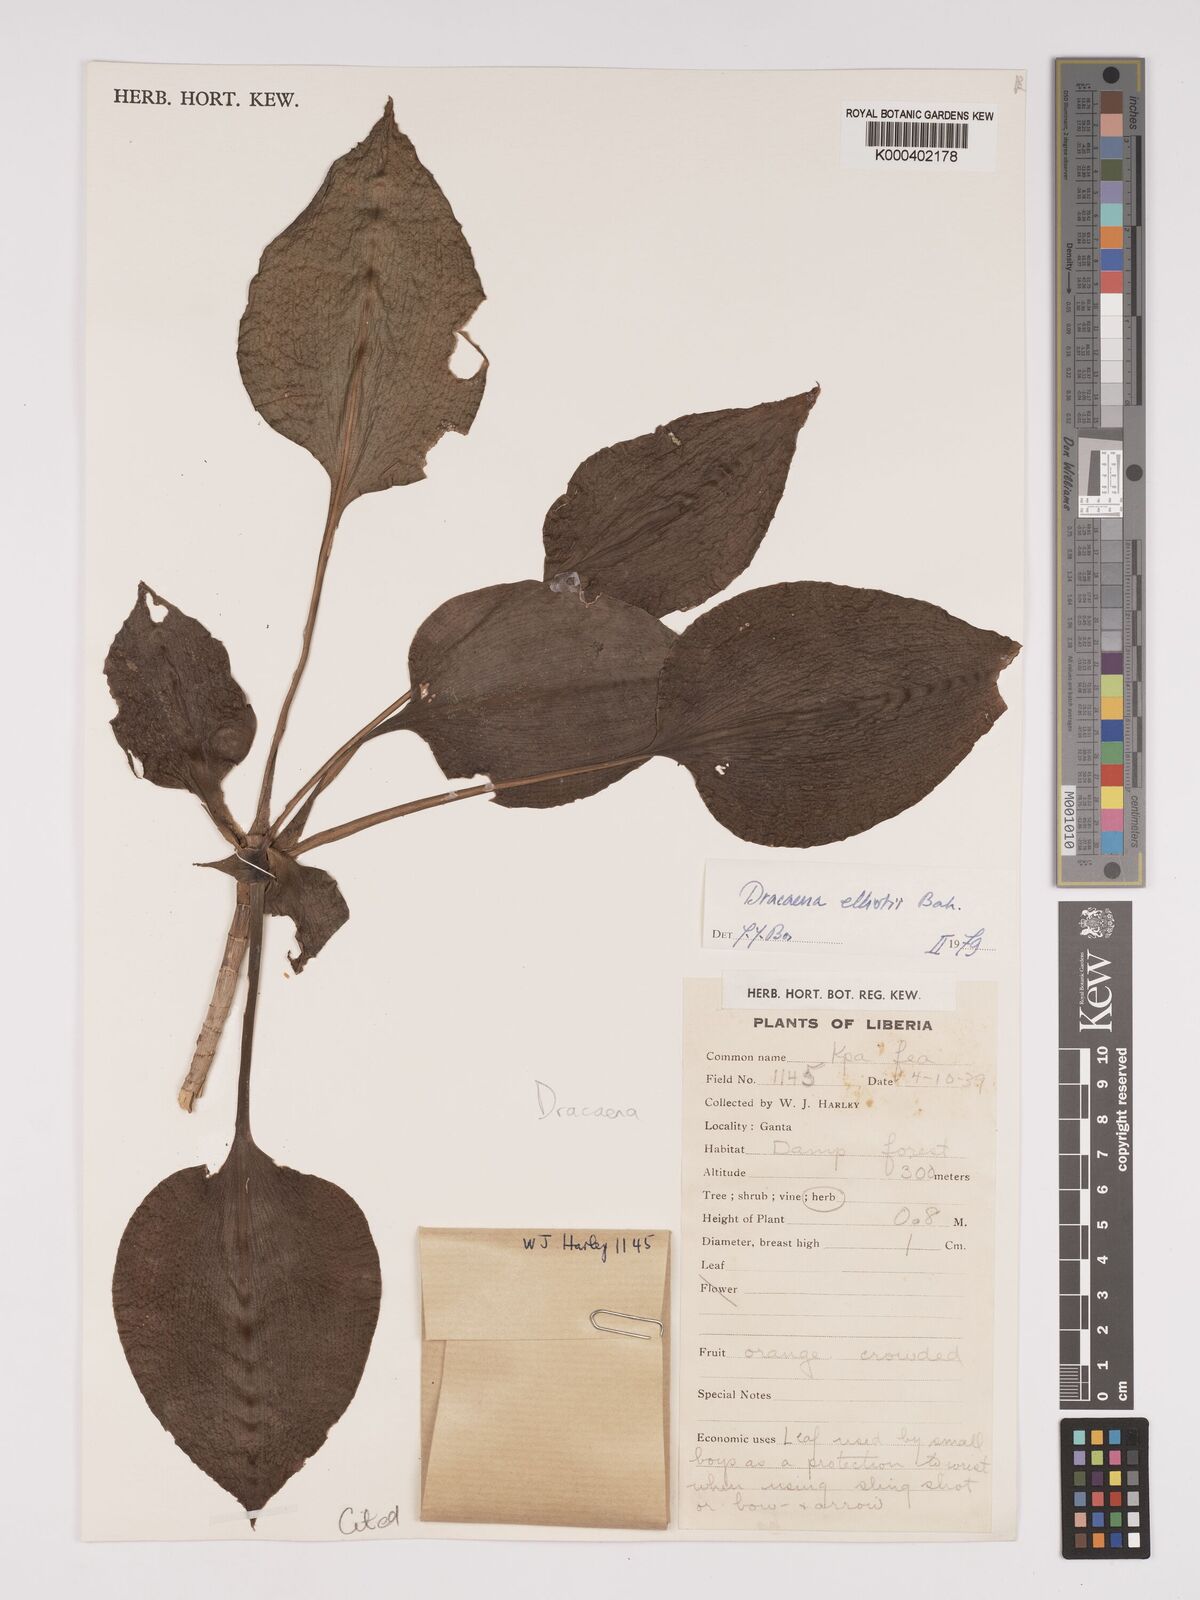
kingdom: Plantae
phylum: Tracheophyta
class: Liliopsida
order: Asparagales
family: Asparagaceae
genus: Dracaena
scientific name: Dracaena cristula
